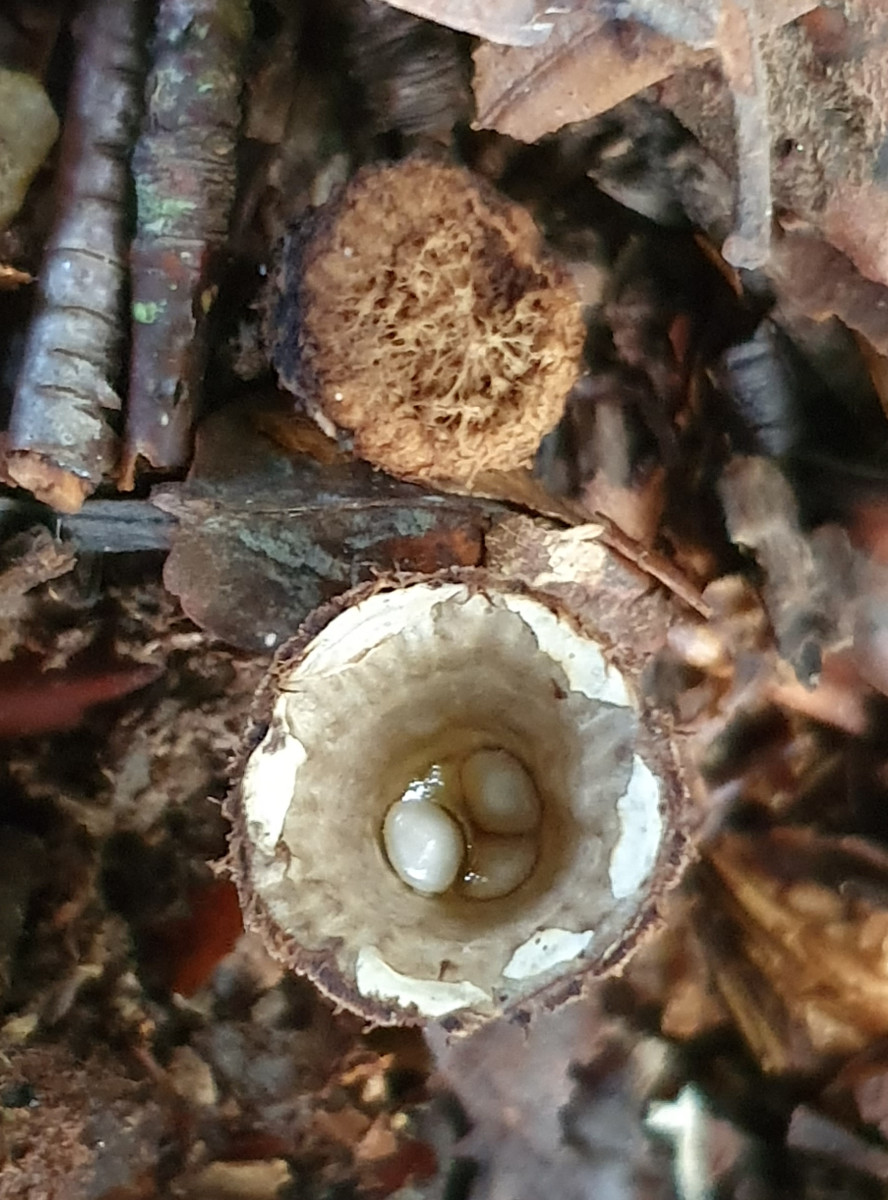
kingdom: Fungi
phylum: Basidiomycota
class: Agaricomycetes
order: Agaricales
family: Agaricaceae
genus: Cyathus
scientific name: Cyathus striatus
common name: stribet redesvamp
